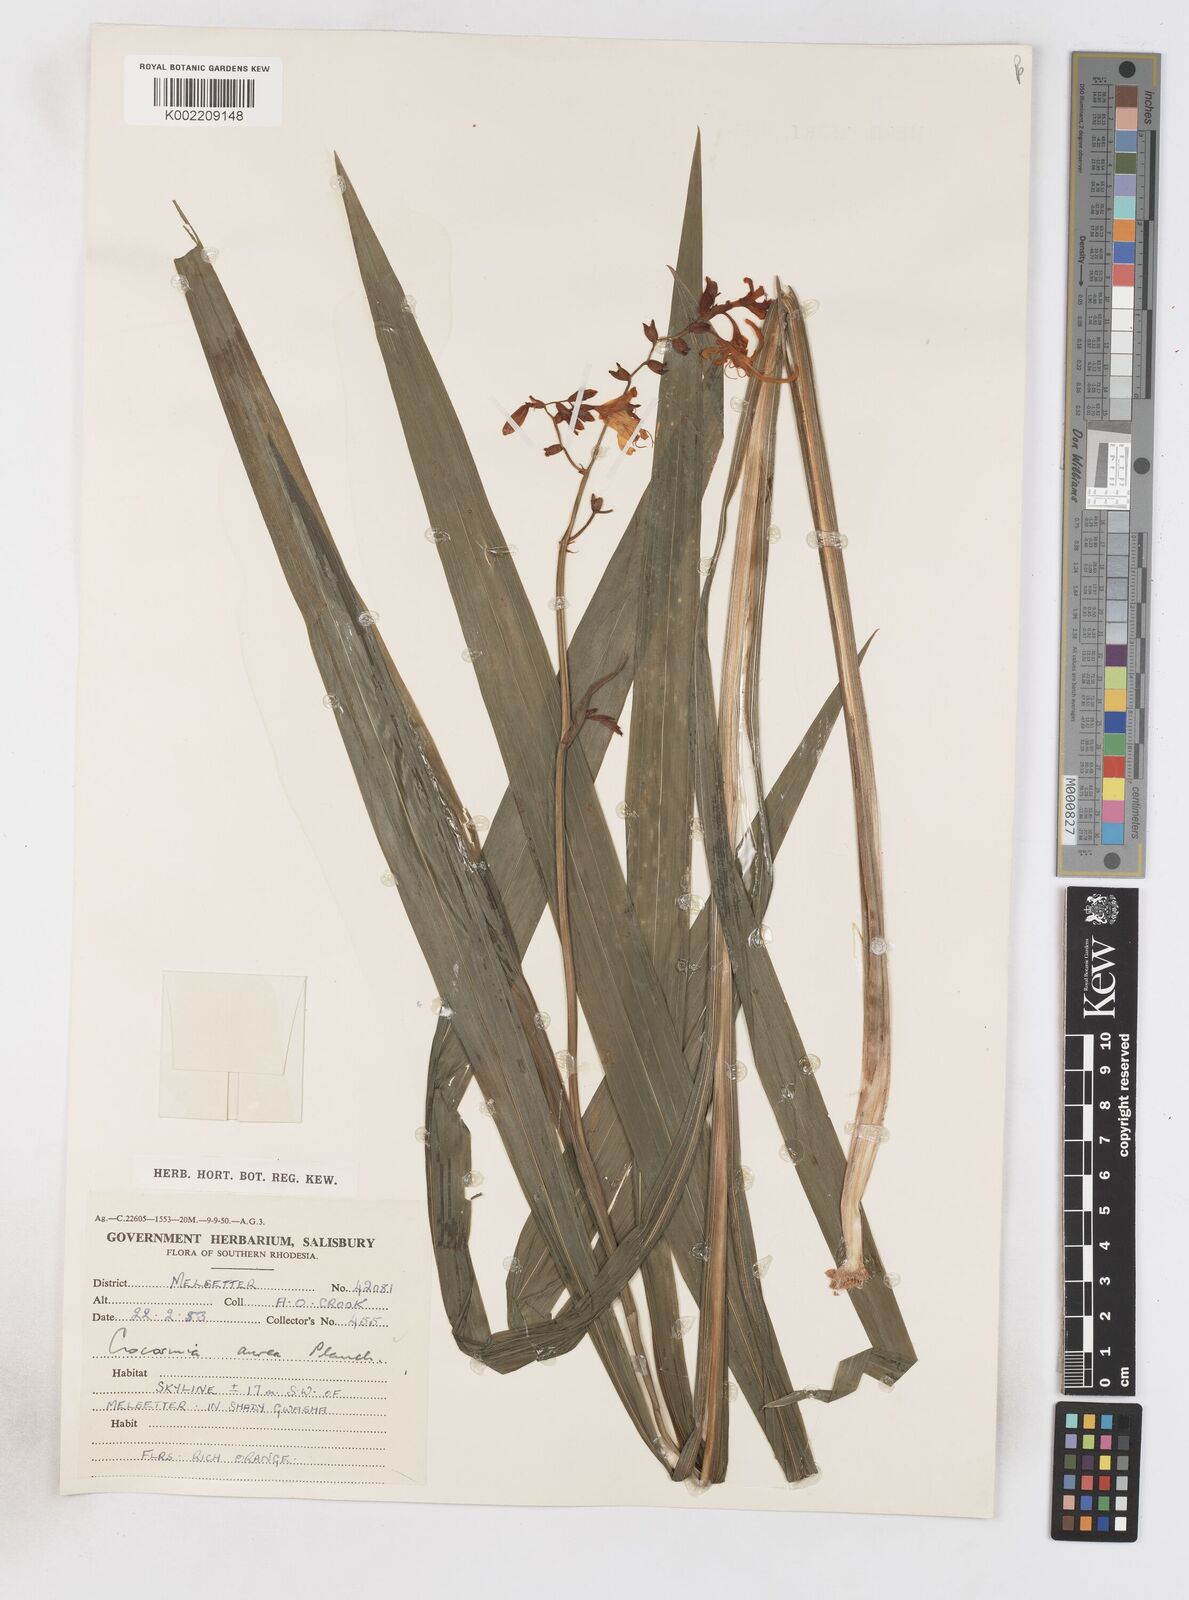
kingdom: Plantae
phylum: Tracheophyta
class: Liliopsida
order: Asparagales
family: Iridaceae
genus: Crocosmia
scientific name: Crocosmia aurea
